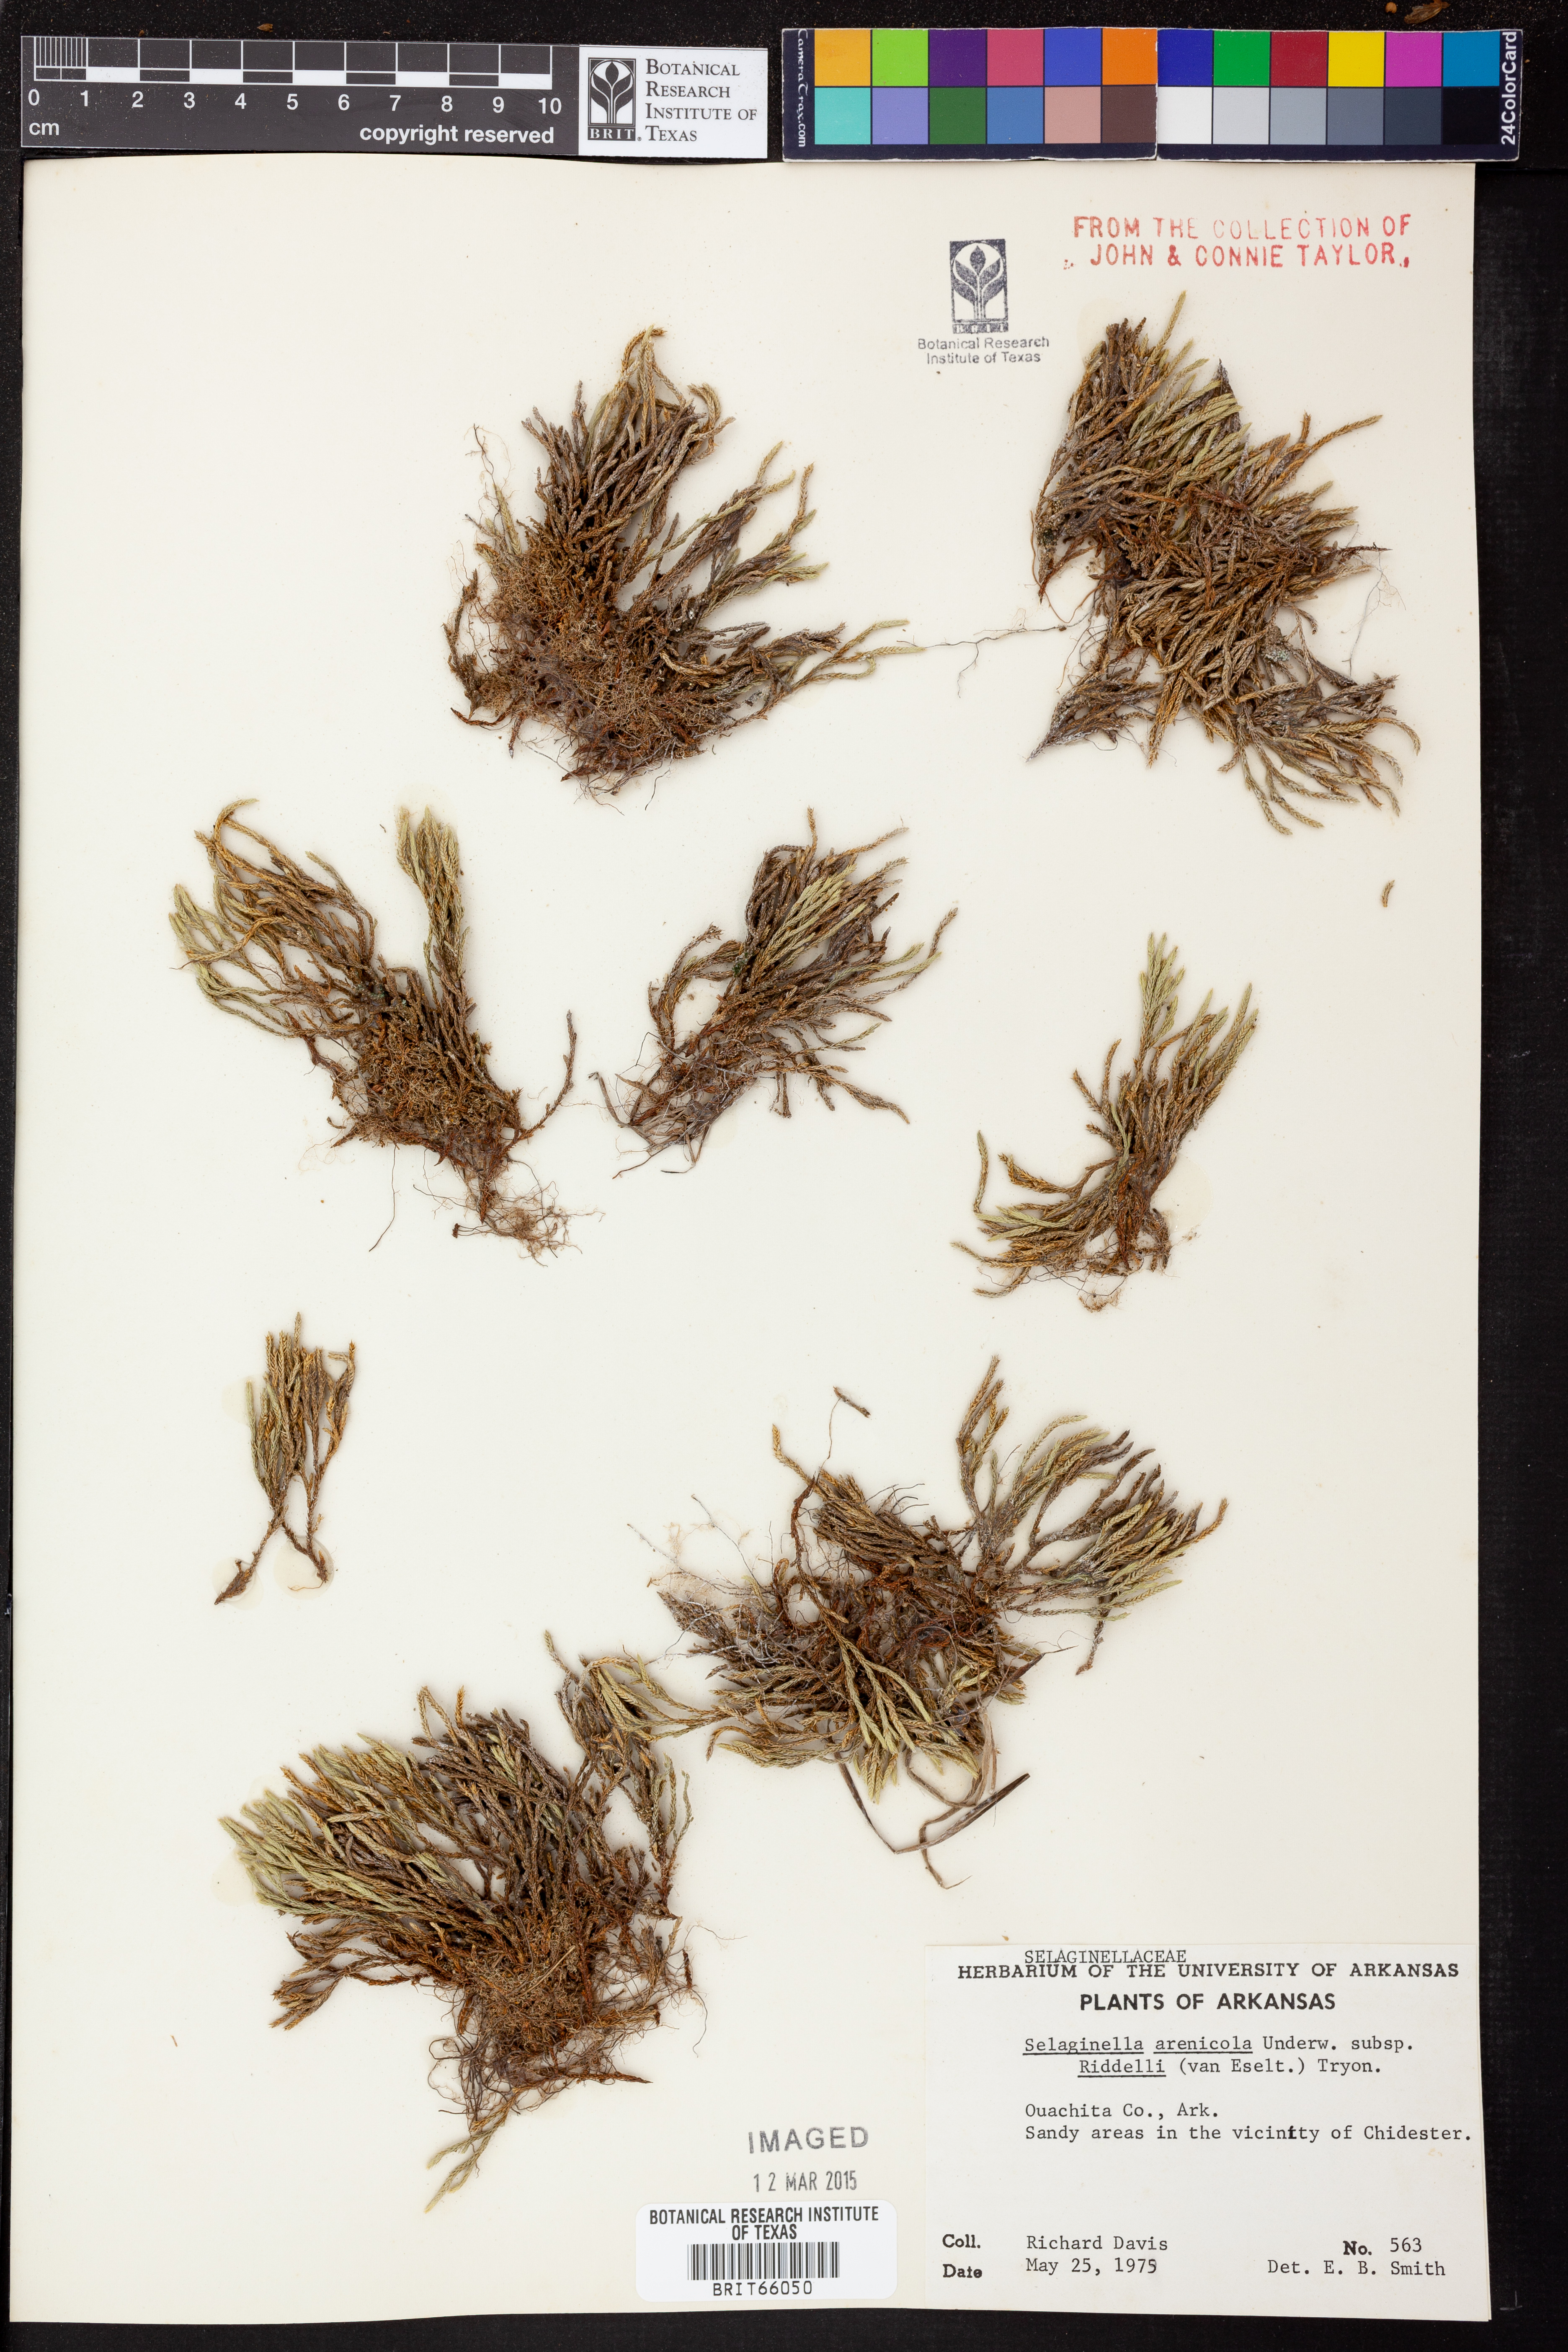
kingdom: Plantae
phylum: Tracheophyta
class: Lycopodiopsida
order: Selaginellales
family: Selaginellaceae
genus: Selaginella
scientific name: Selaginella corallina
